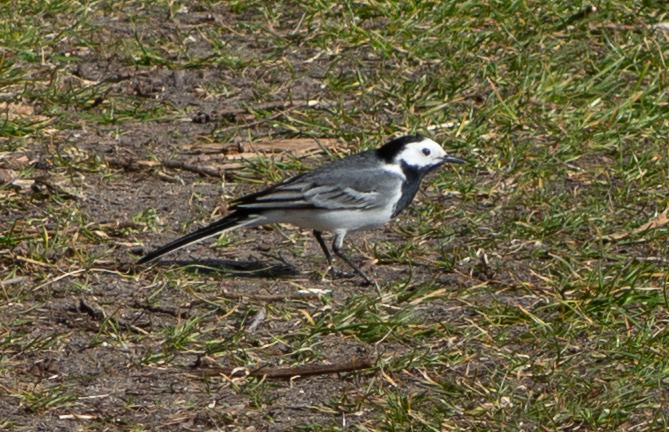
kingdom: Animalia
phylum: Chordata
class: Aves
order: Passeriformes
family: Motacillidae
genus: Motacilla
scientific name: Motacilla alba
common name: Hvid vipstjert
